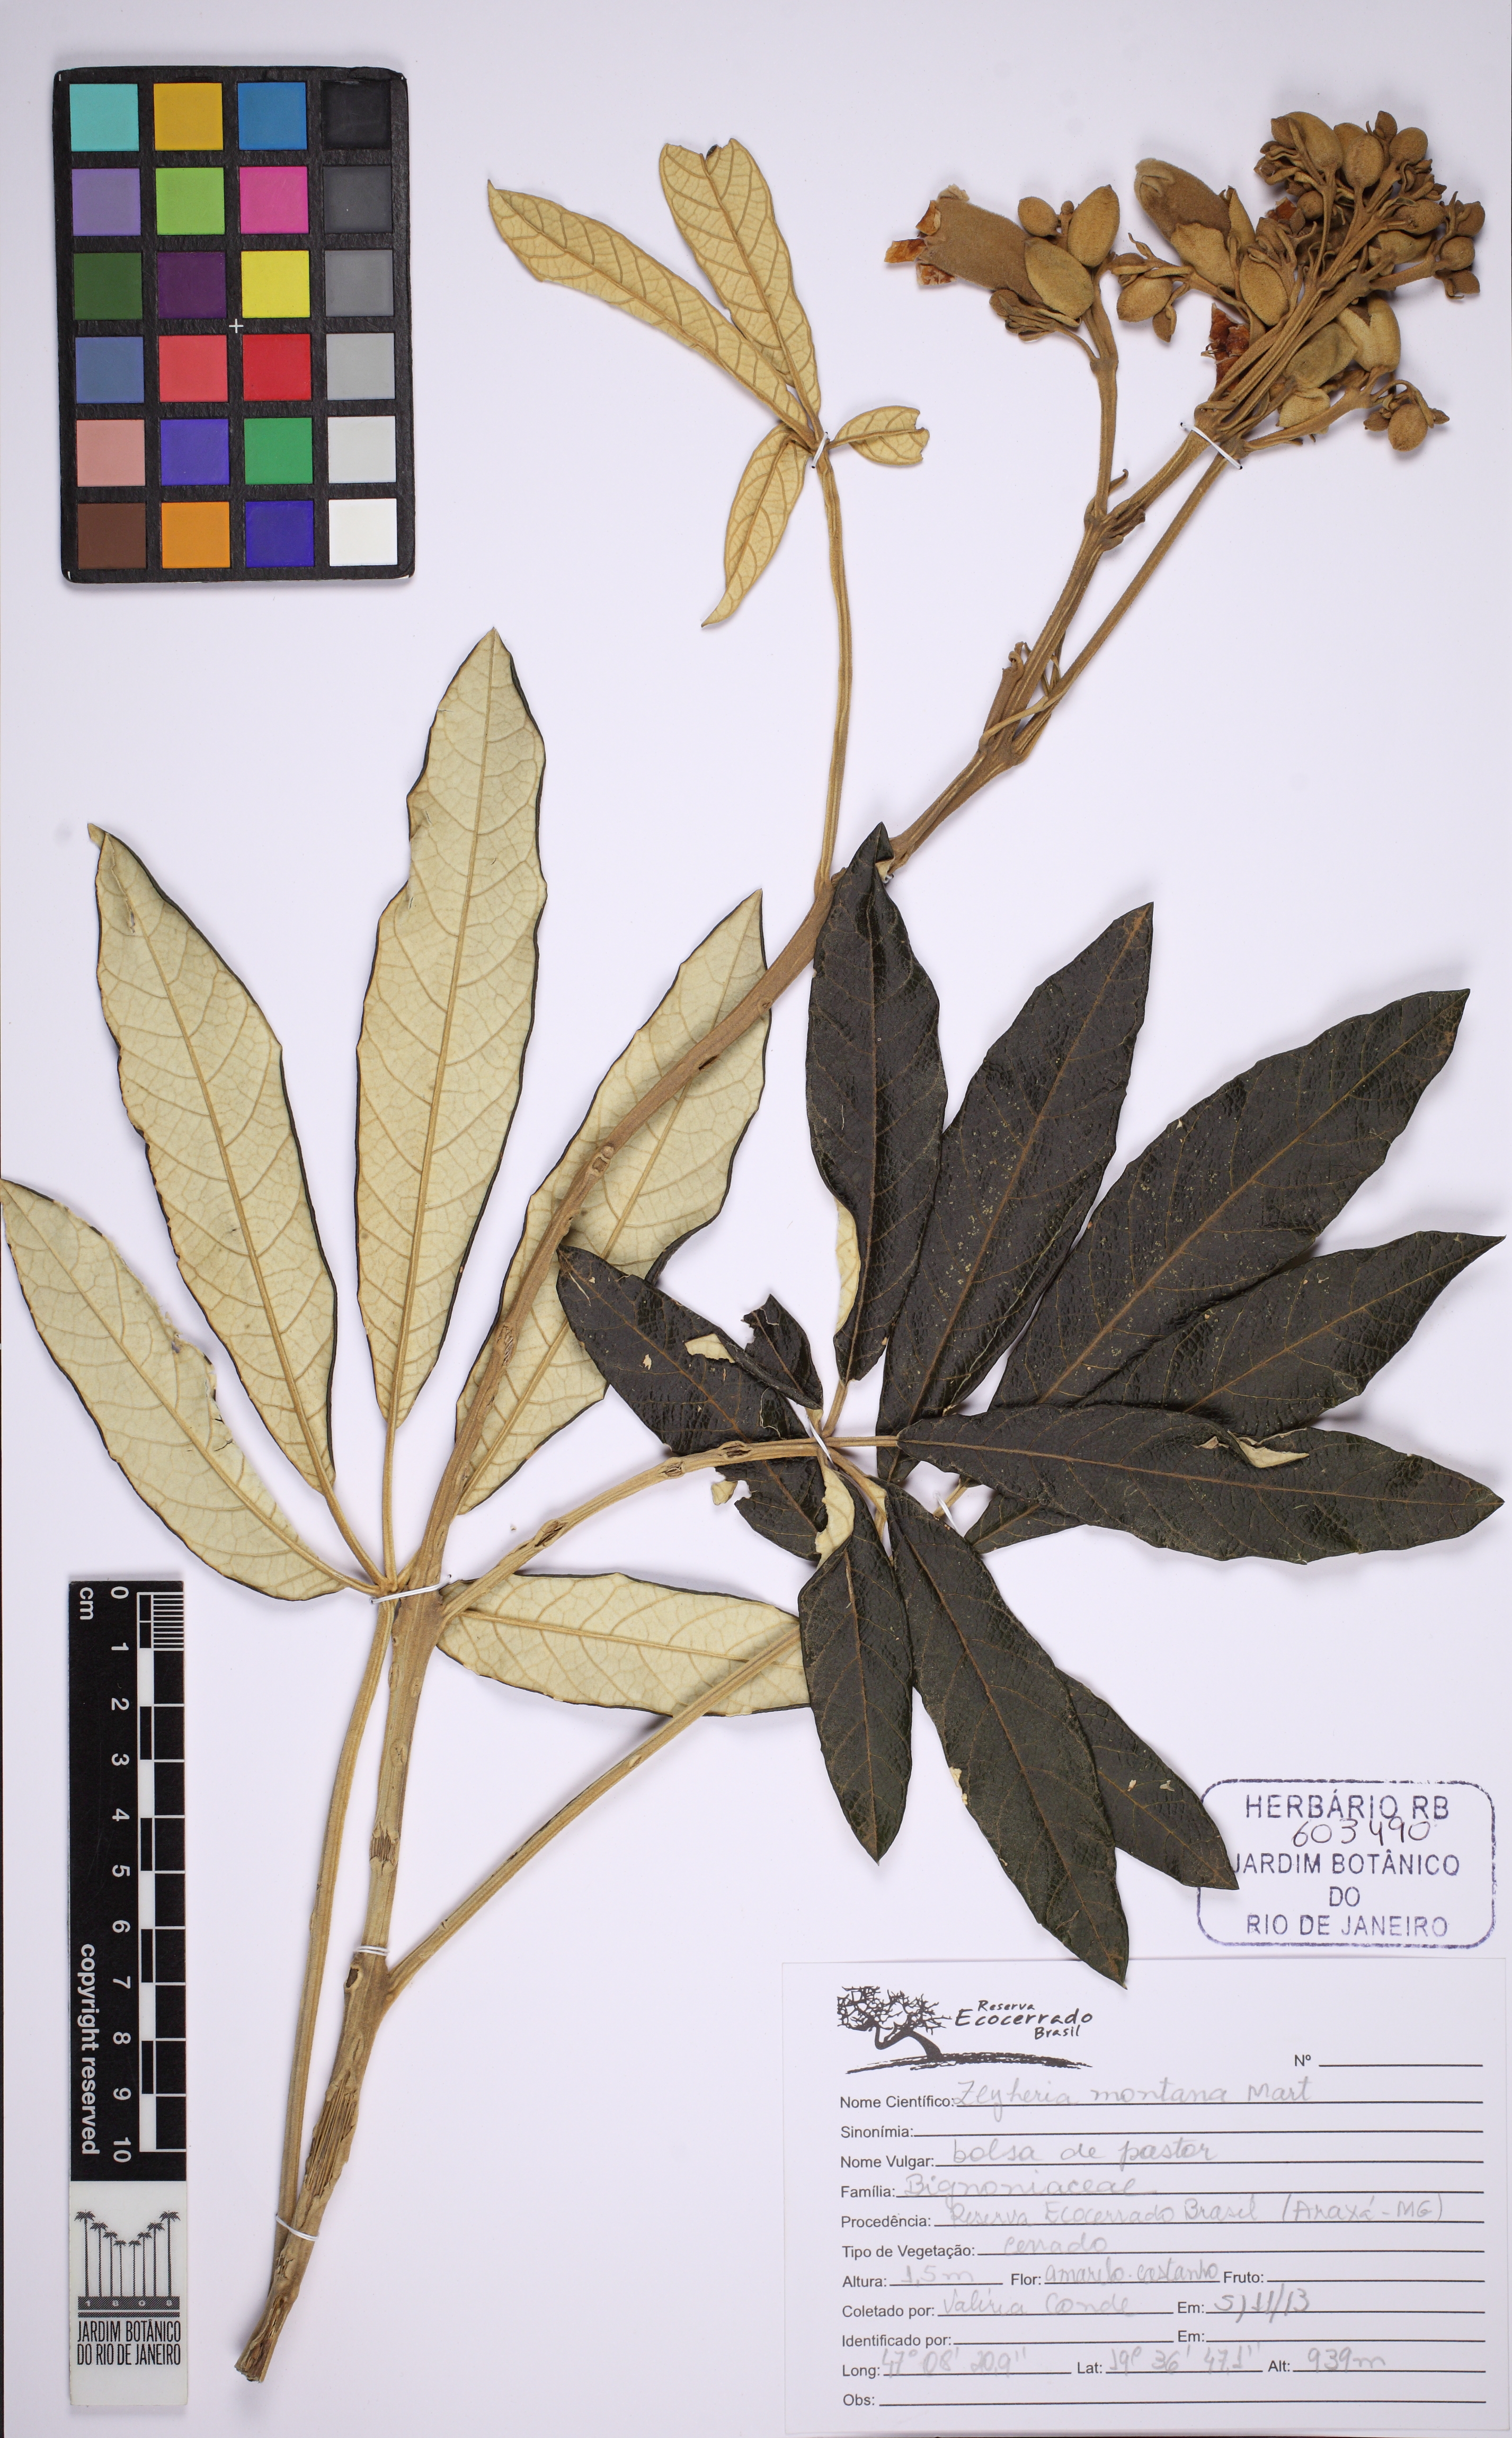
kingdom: Plantae
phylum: Tracheophyta
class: Magnoliopsida
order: Lamiales
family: Bignoniaceae
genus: Zeyheria
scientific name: Zeyheria montana
